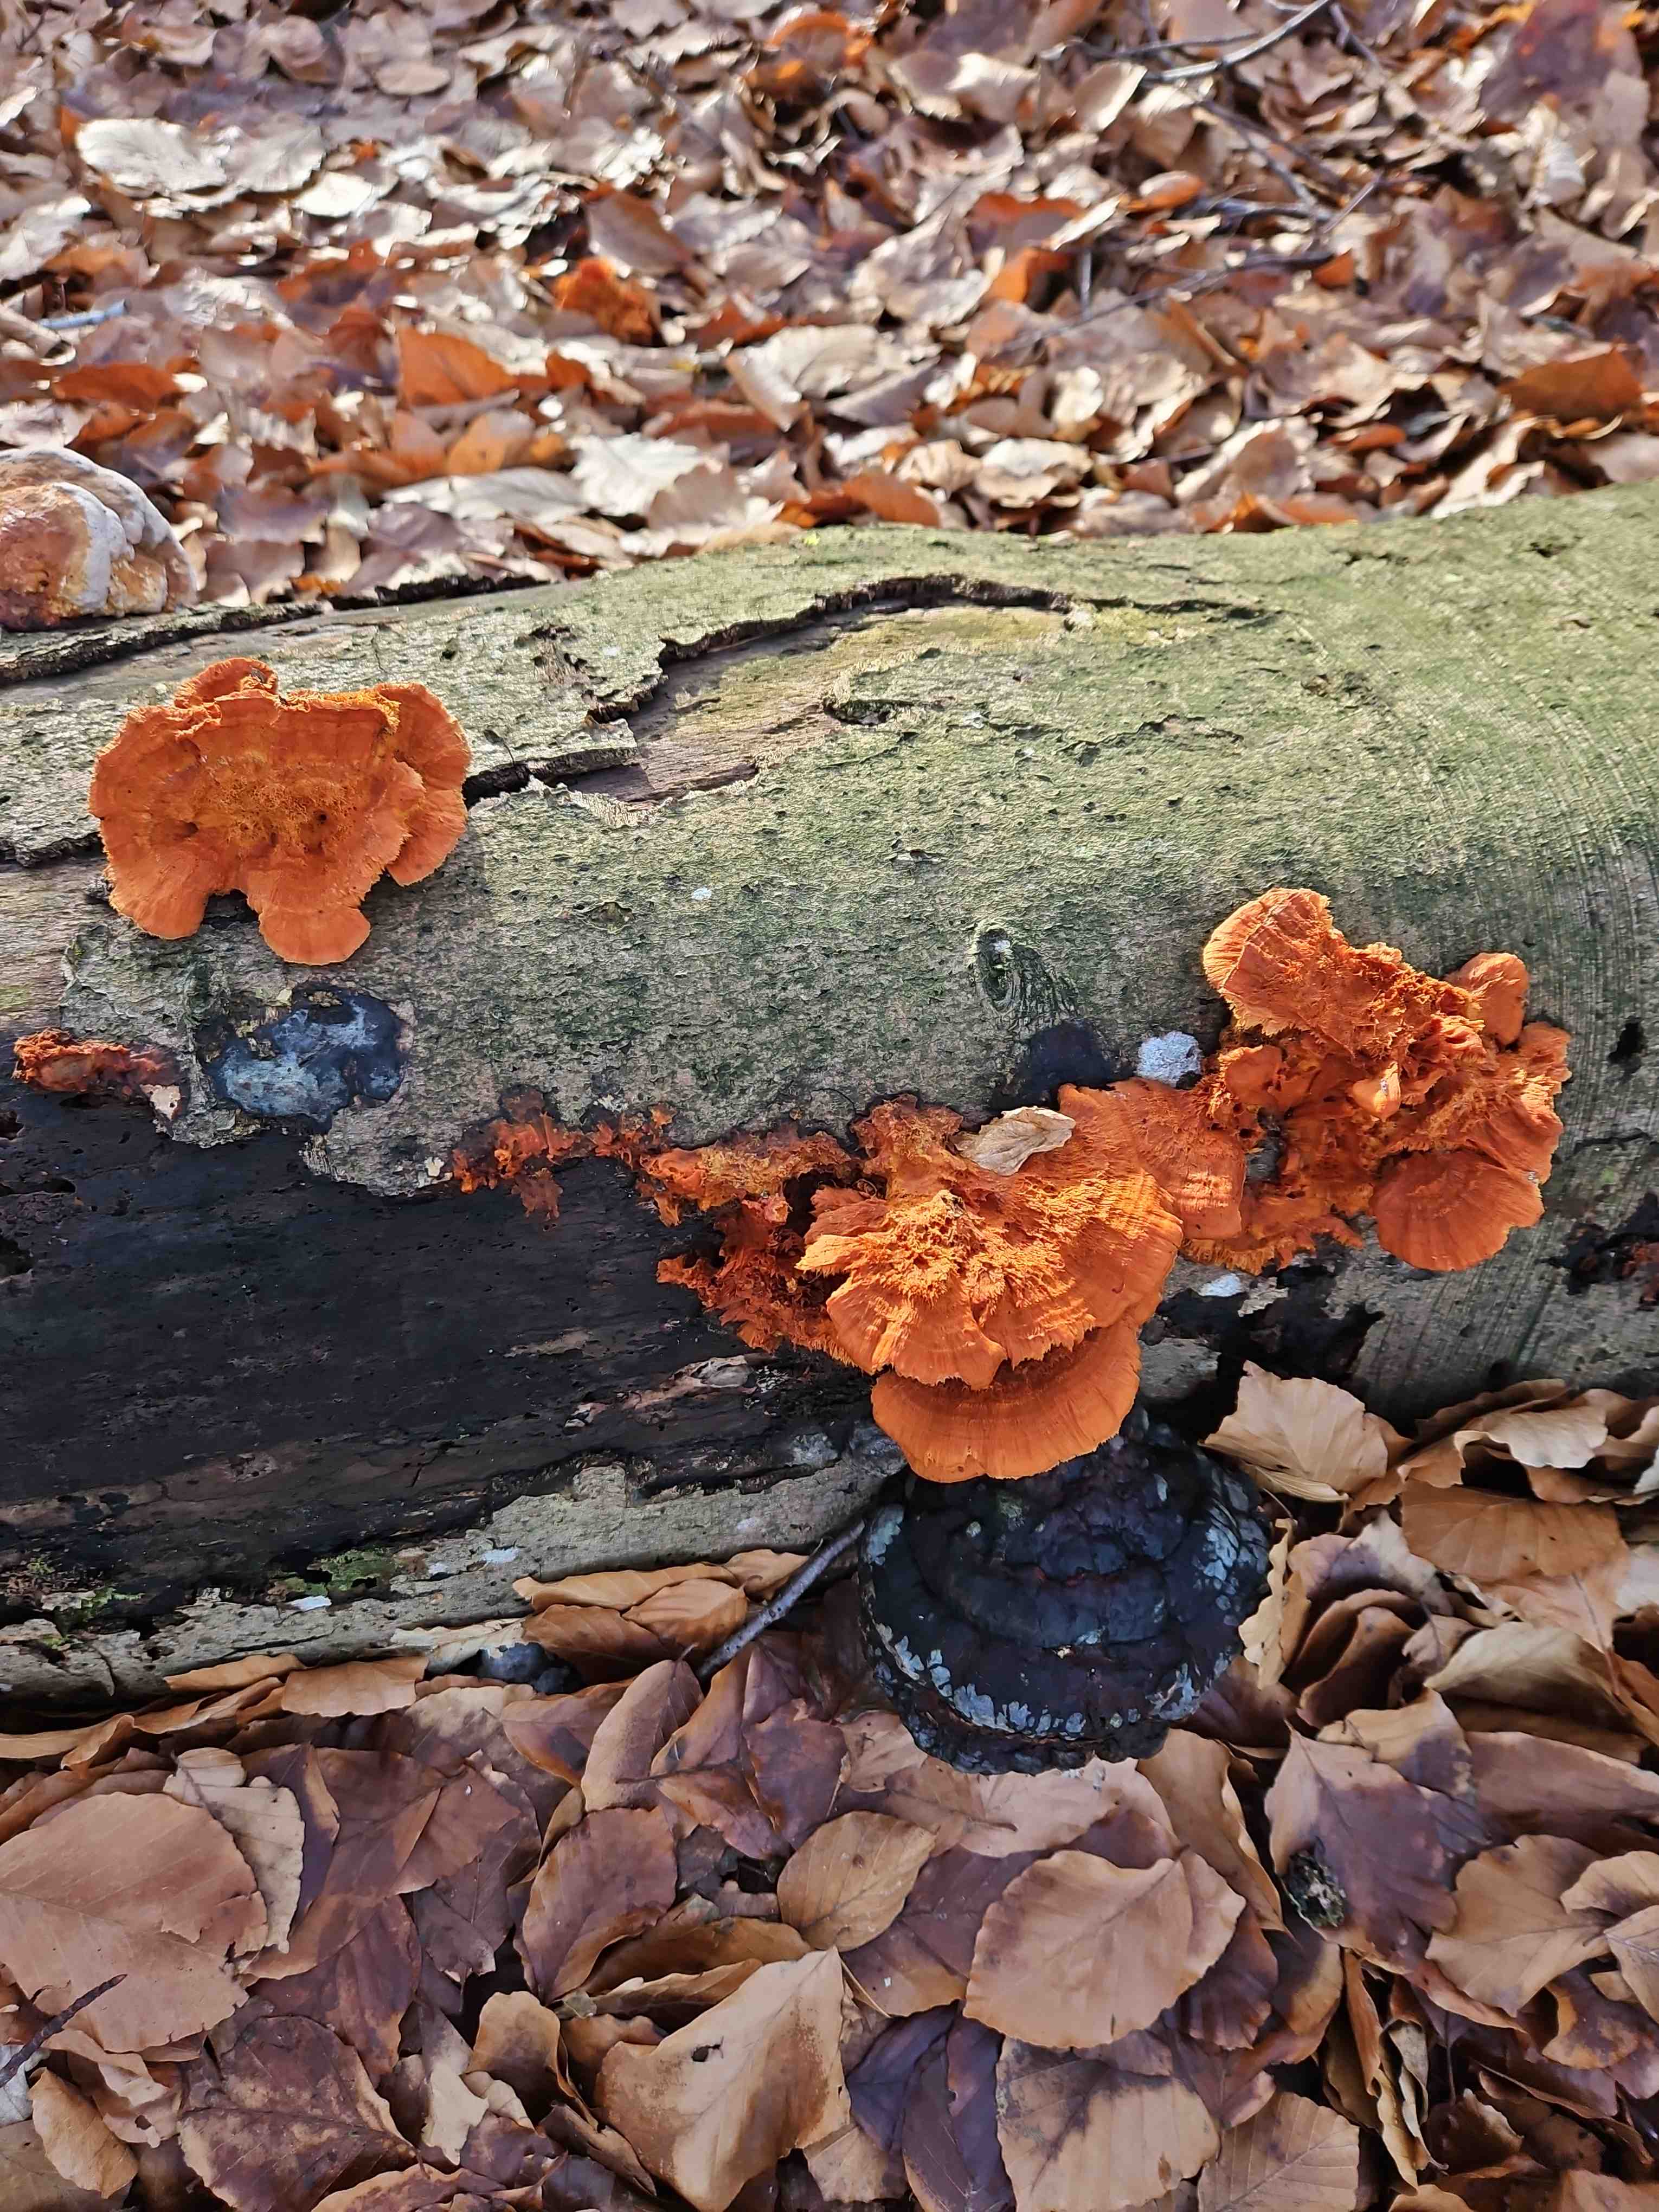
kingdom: Fungi
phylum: Basidiomycota
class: Agaricomycetes
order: Polyporales
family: Pycnoporellaceae
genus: Pycnoporellus
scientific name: Pycnoporellus fulgens
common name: flammeporesvamp
